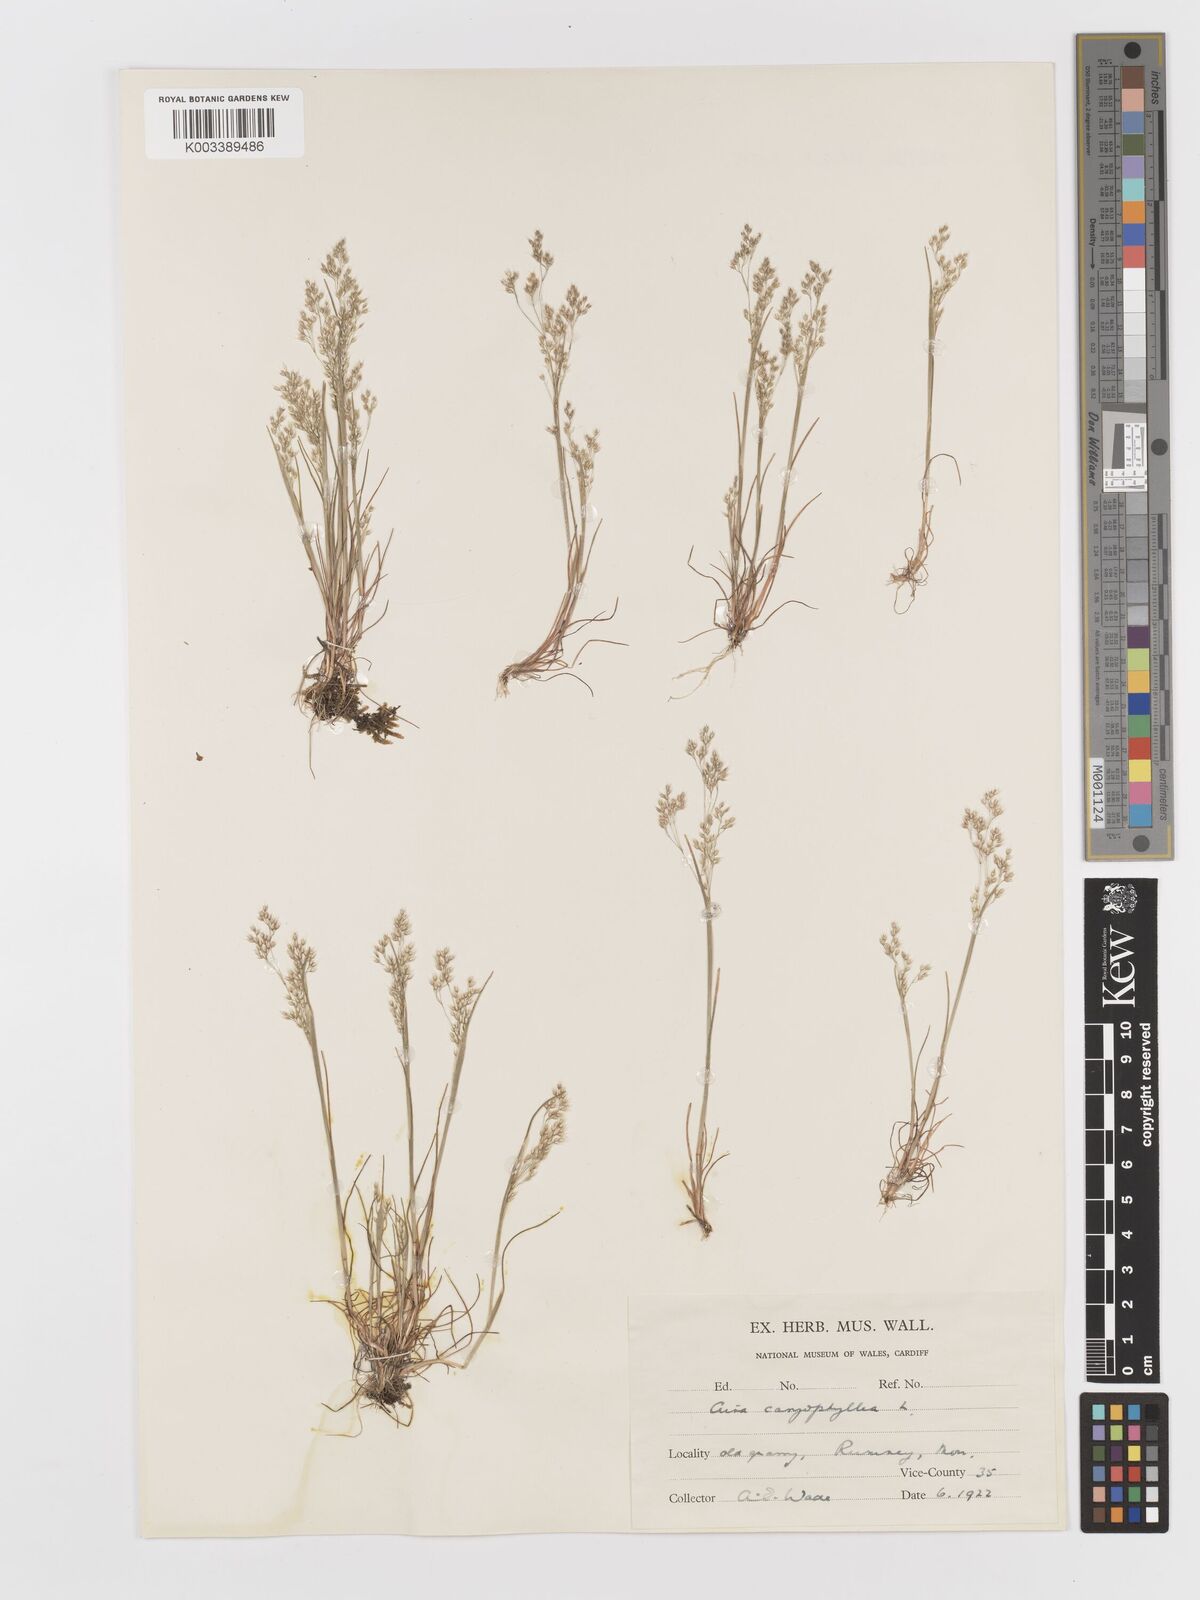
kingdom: Plantae
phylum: Tracheophyta
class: Liliopsida
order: Poales
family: Poaceae
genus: Aira
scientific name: Aira caryophyllea
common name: Silver hairgrass
